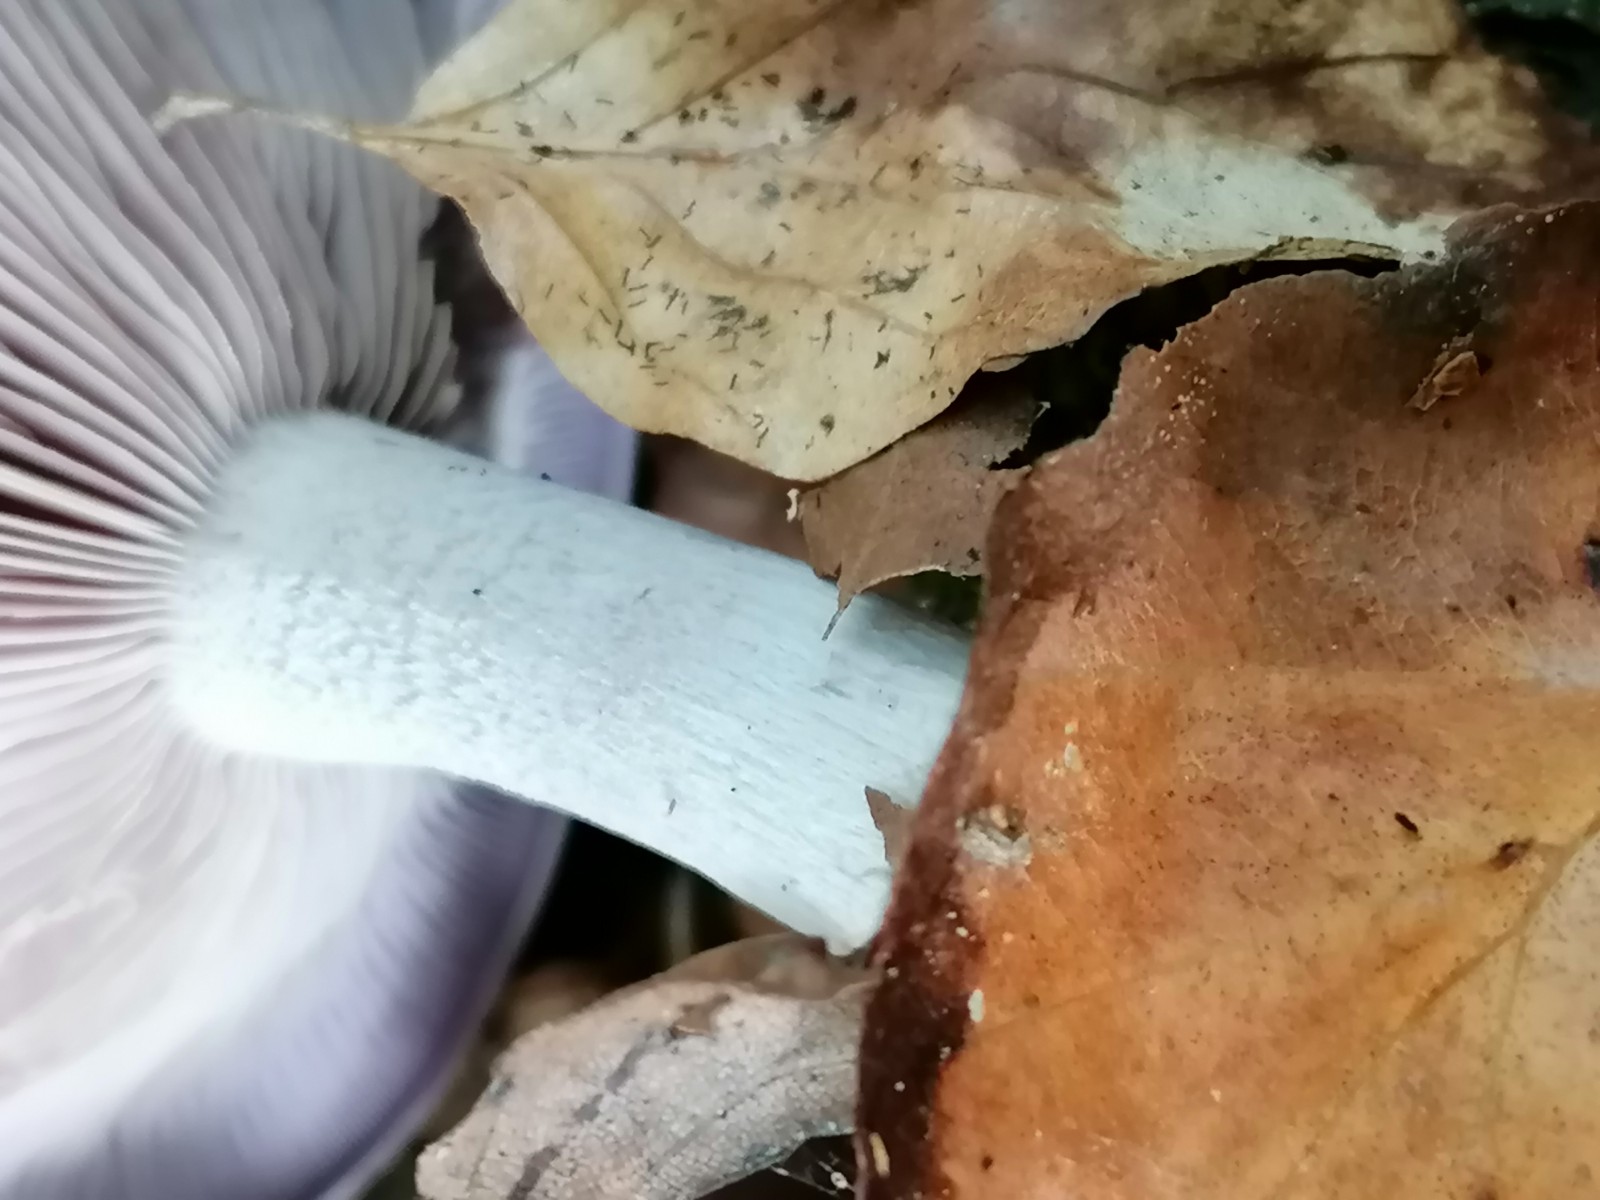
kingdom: Fungi
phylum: Basidiomycota
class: Agaricomycetes
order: Agaricales
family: Tricholomataceae
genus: Lepista
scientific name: Lepista nuda
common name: violet hekseringshat
